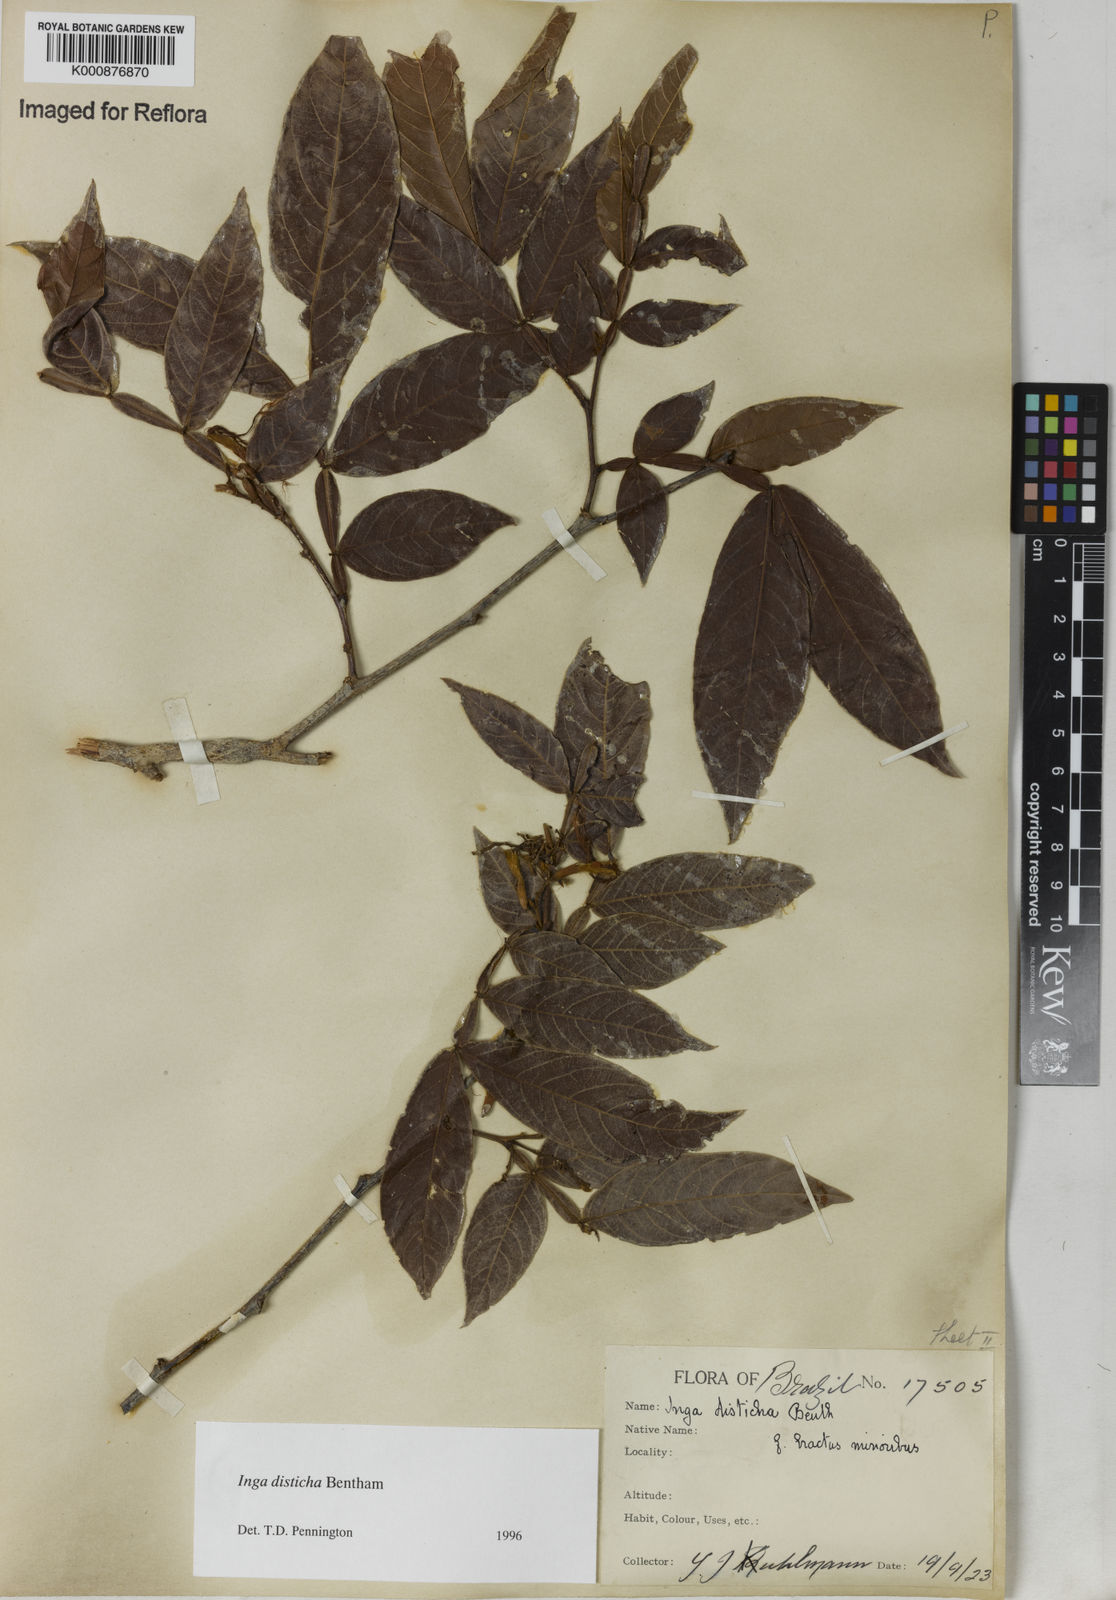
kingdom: Plantae
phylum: Tracheophyta
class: Magnoliopsida
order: Fabales
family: Fabaceae
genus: Inga
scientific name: Inga disticha
